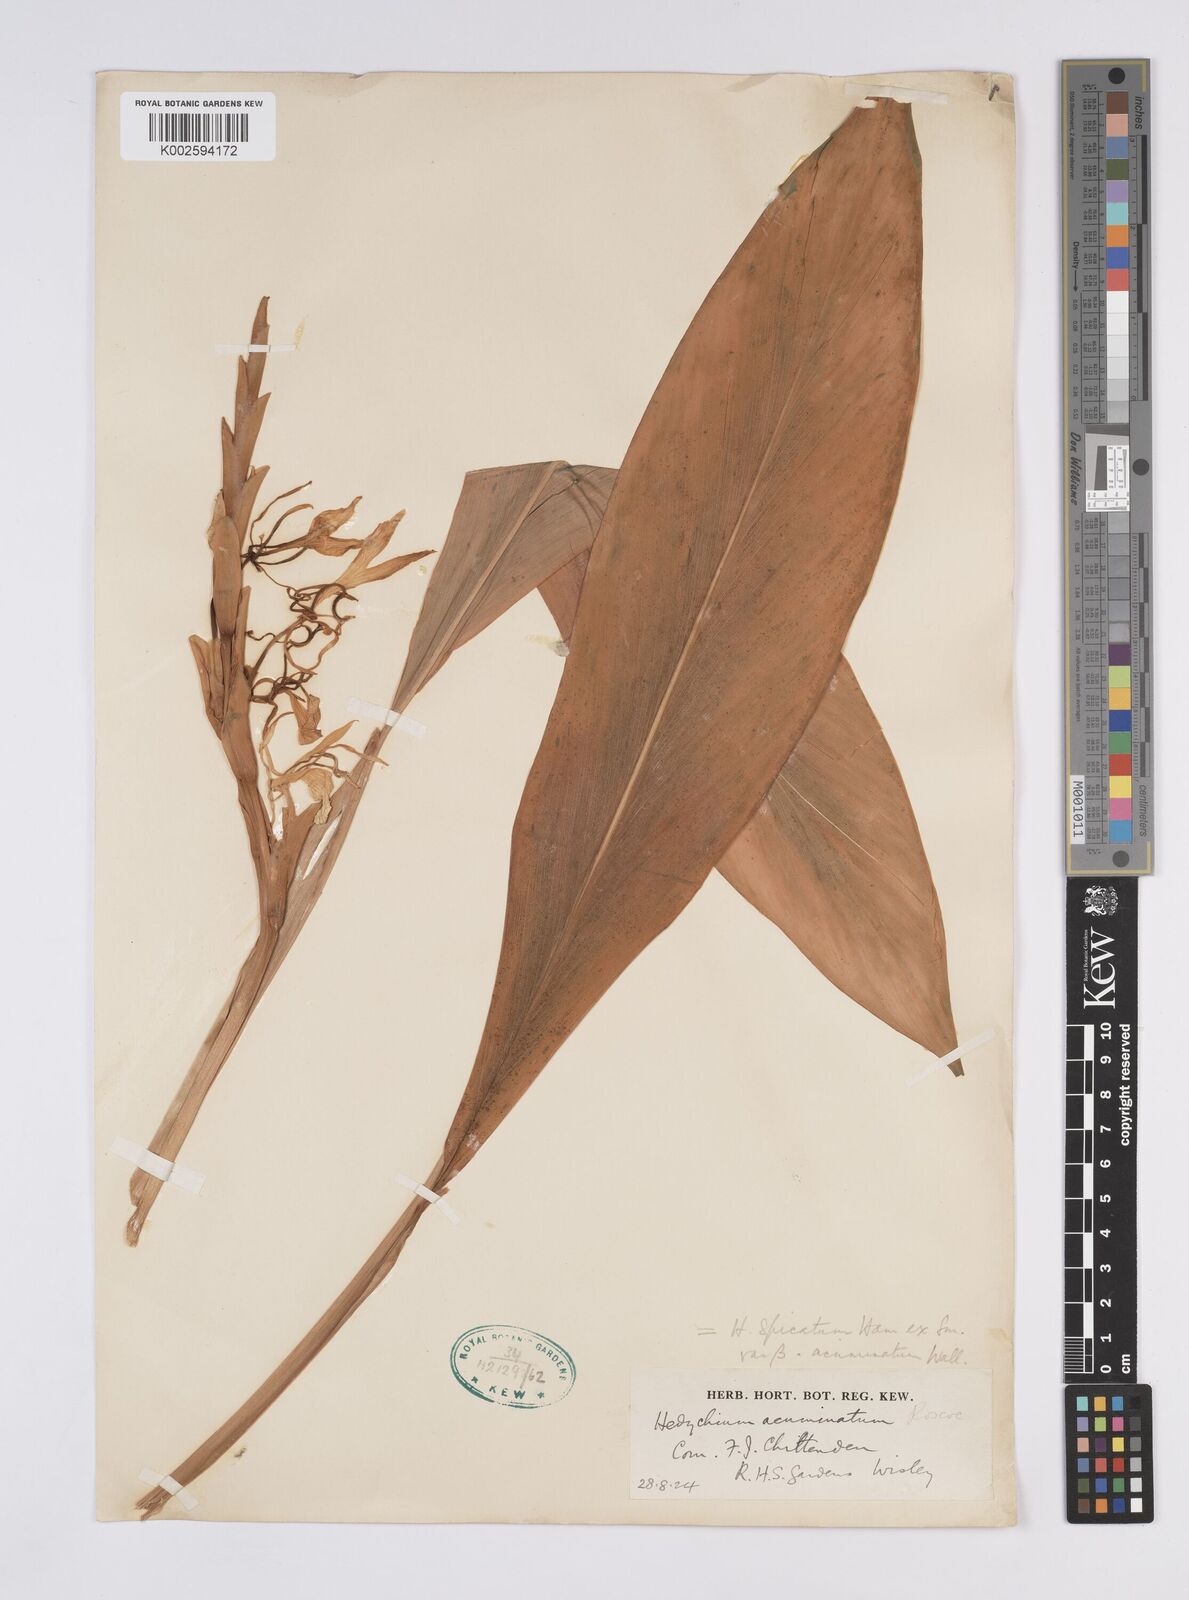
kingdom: Plantae
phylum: Tracheophyta
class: Liliopsida
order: Zingiberales
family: Zingiberaceae
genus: Hedychium
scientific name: Hedychium spicatum
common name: Spiked ginger-lily
